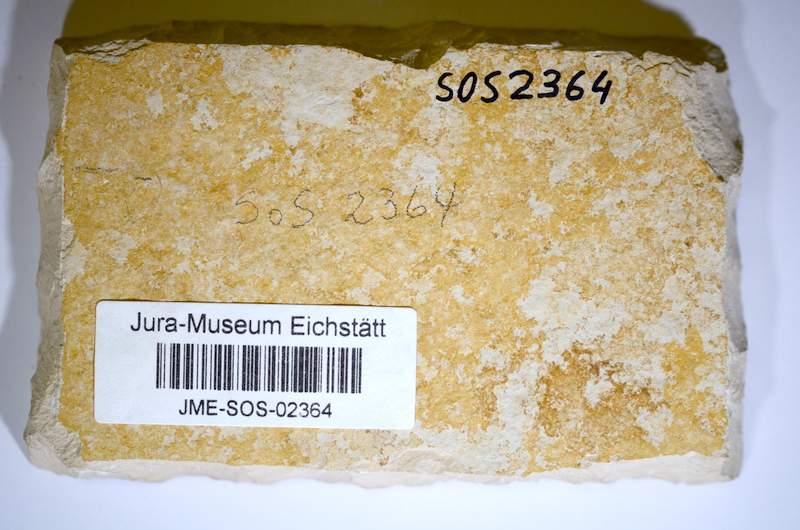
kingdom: Animalia
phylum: Chordata
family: Ascalaboidae
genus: Ascalabos
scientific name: Ascalabos voithii
